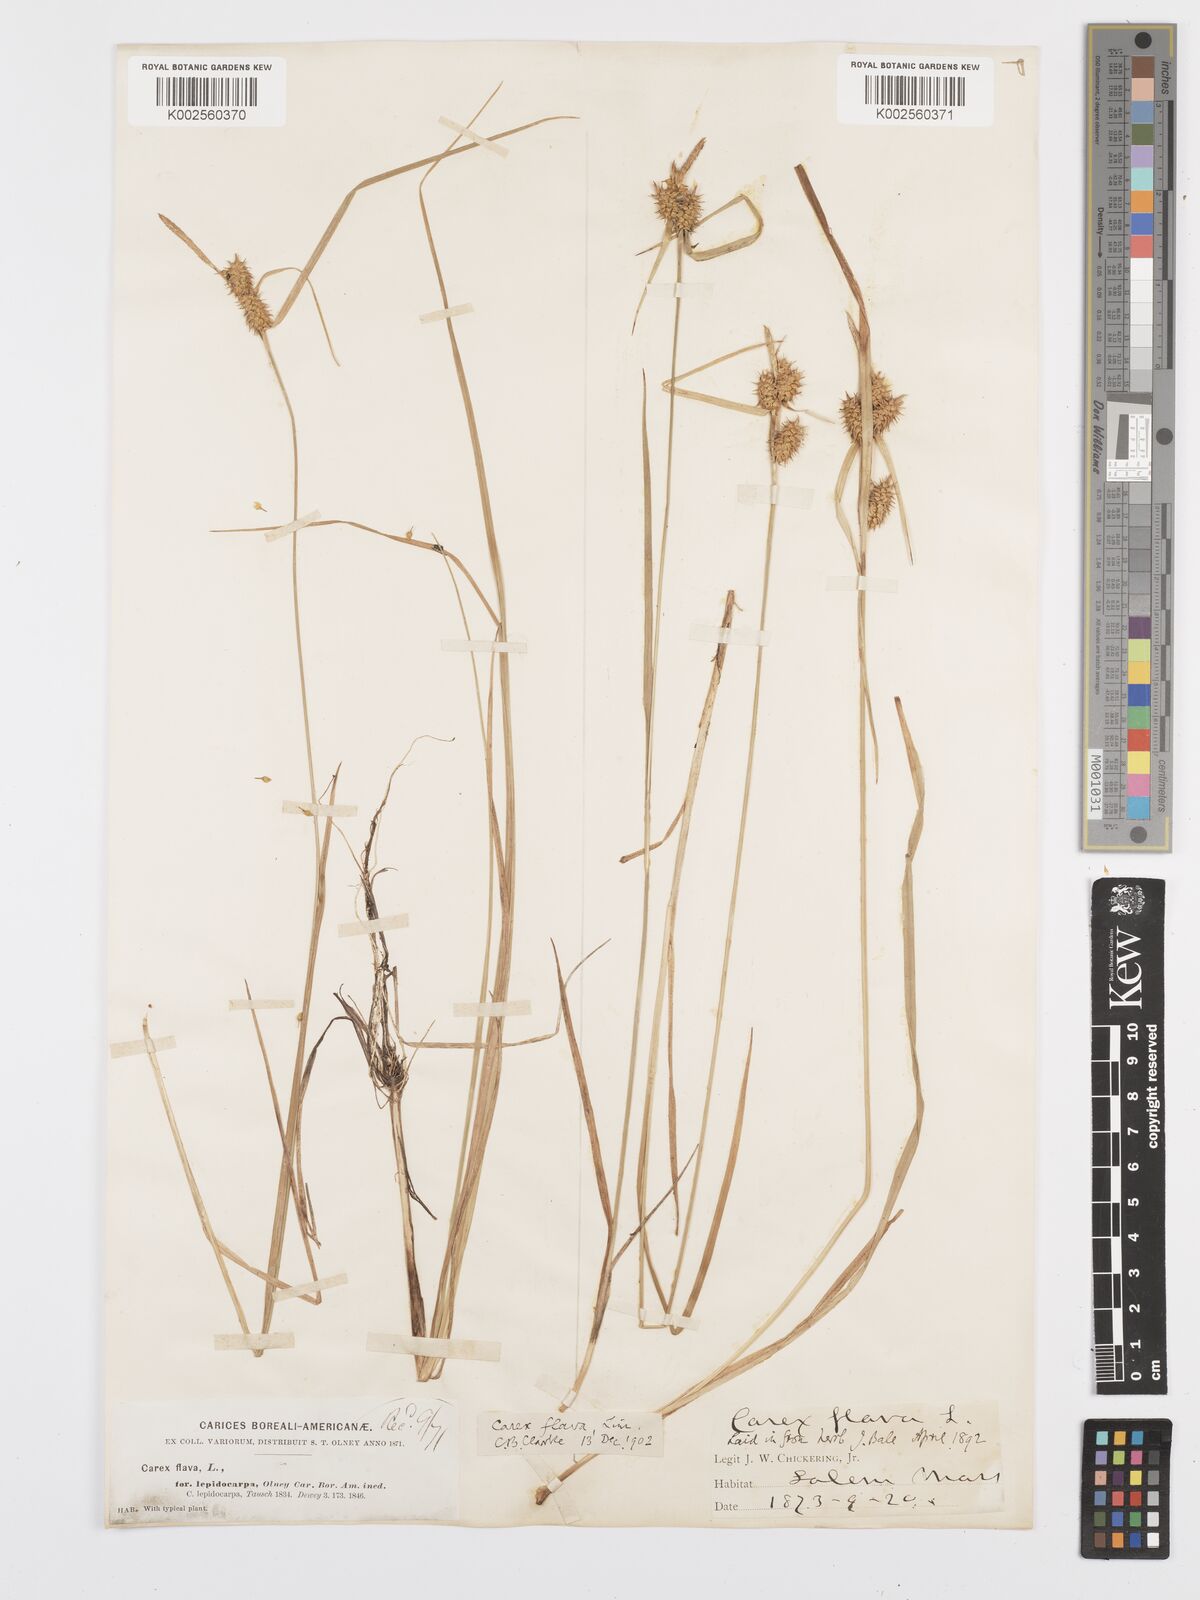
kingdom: Plantae
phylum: Tracheophyta
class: Liliopsida
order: Poales
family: Cyperaceae
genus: Carex
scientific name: Carex lepidocarpa
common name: Long-stalked yellow-sedge
